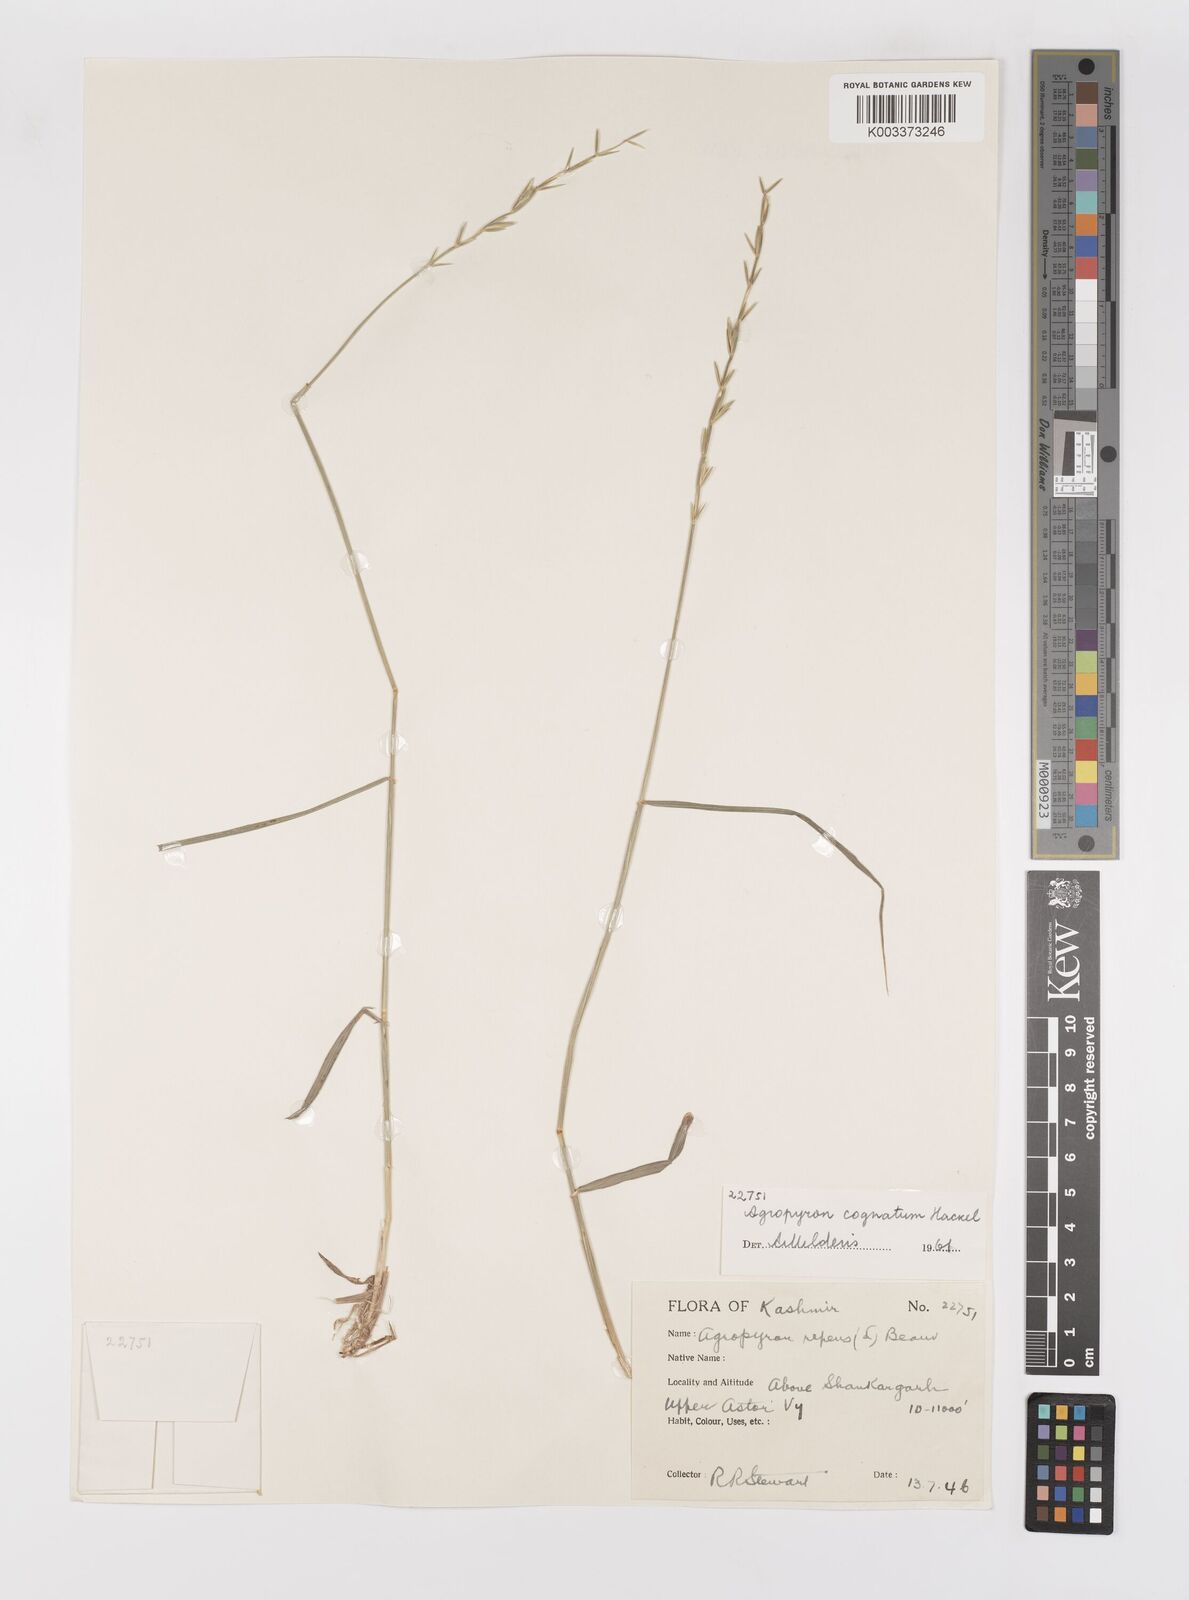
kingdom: Plantae
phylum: Tracheophyta
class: Liliopsida
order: Poales
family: Poaceae
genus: Pseudoroegneria
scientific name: Pseudoroegneria cognata
